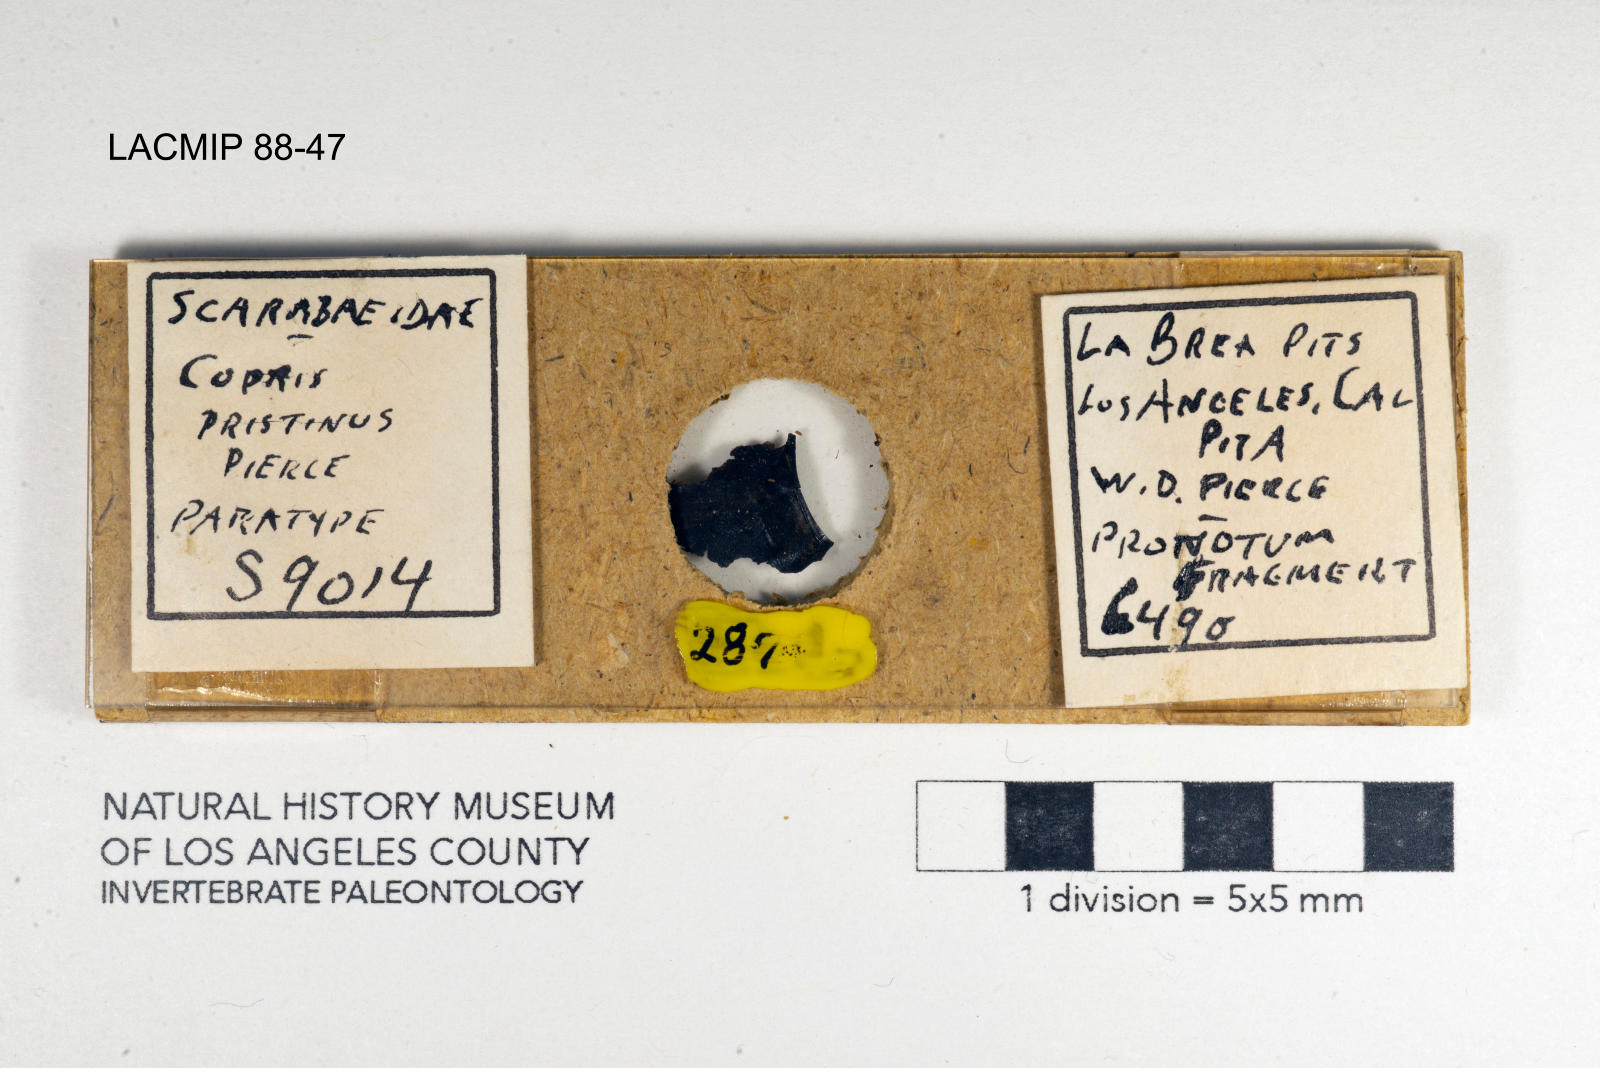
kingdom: Animalia
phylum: Arthropoda
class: Insecta
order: Coleoptera
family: Scarabaeidae
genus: Copris
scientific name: Copris pristinus
